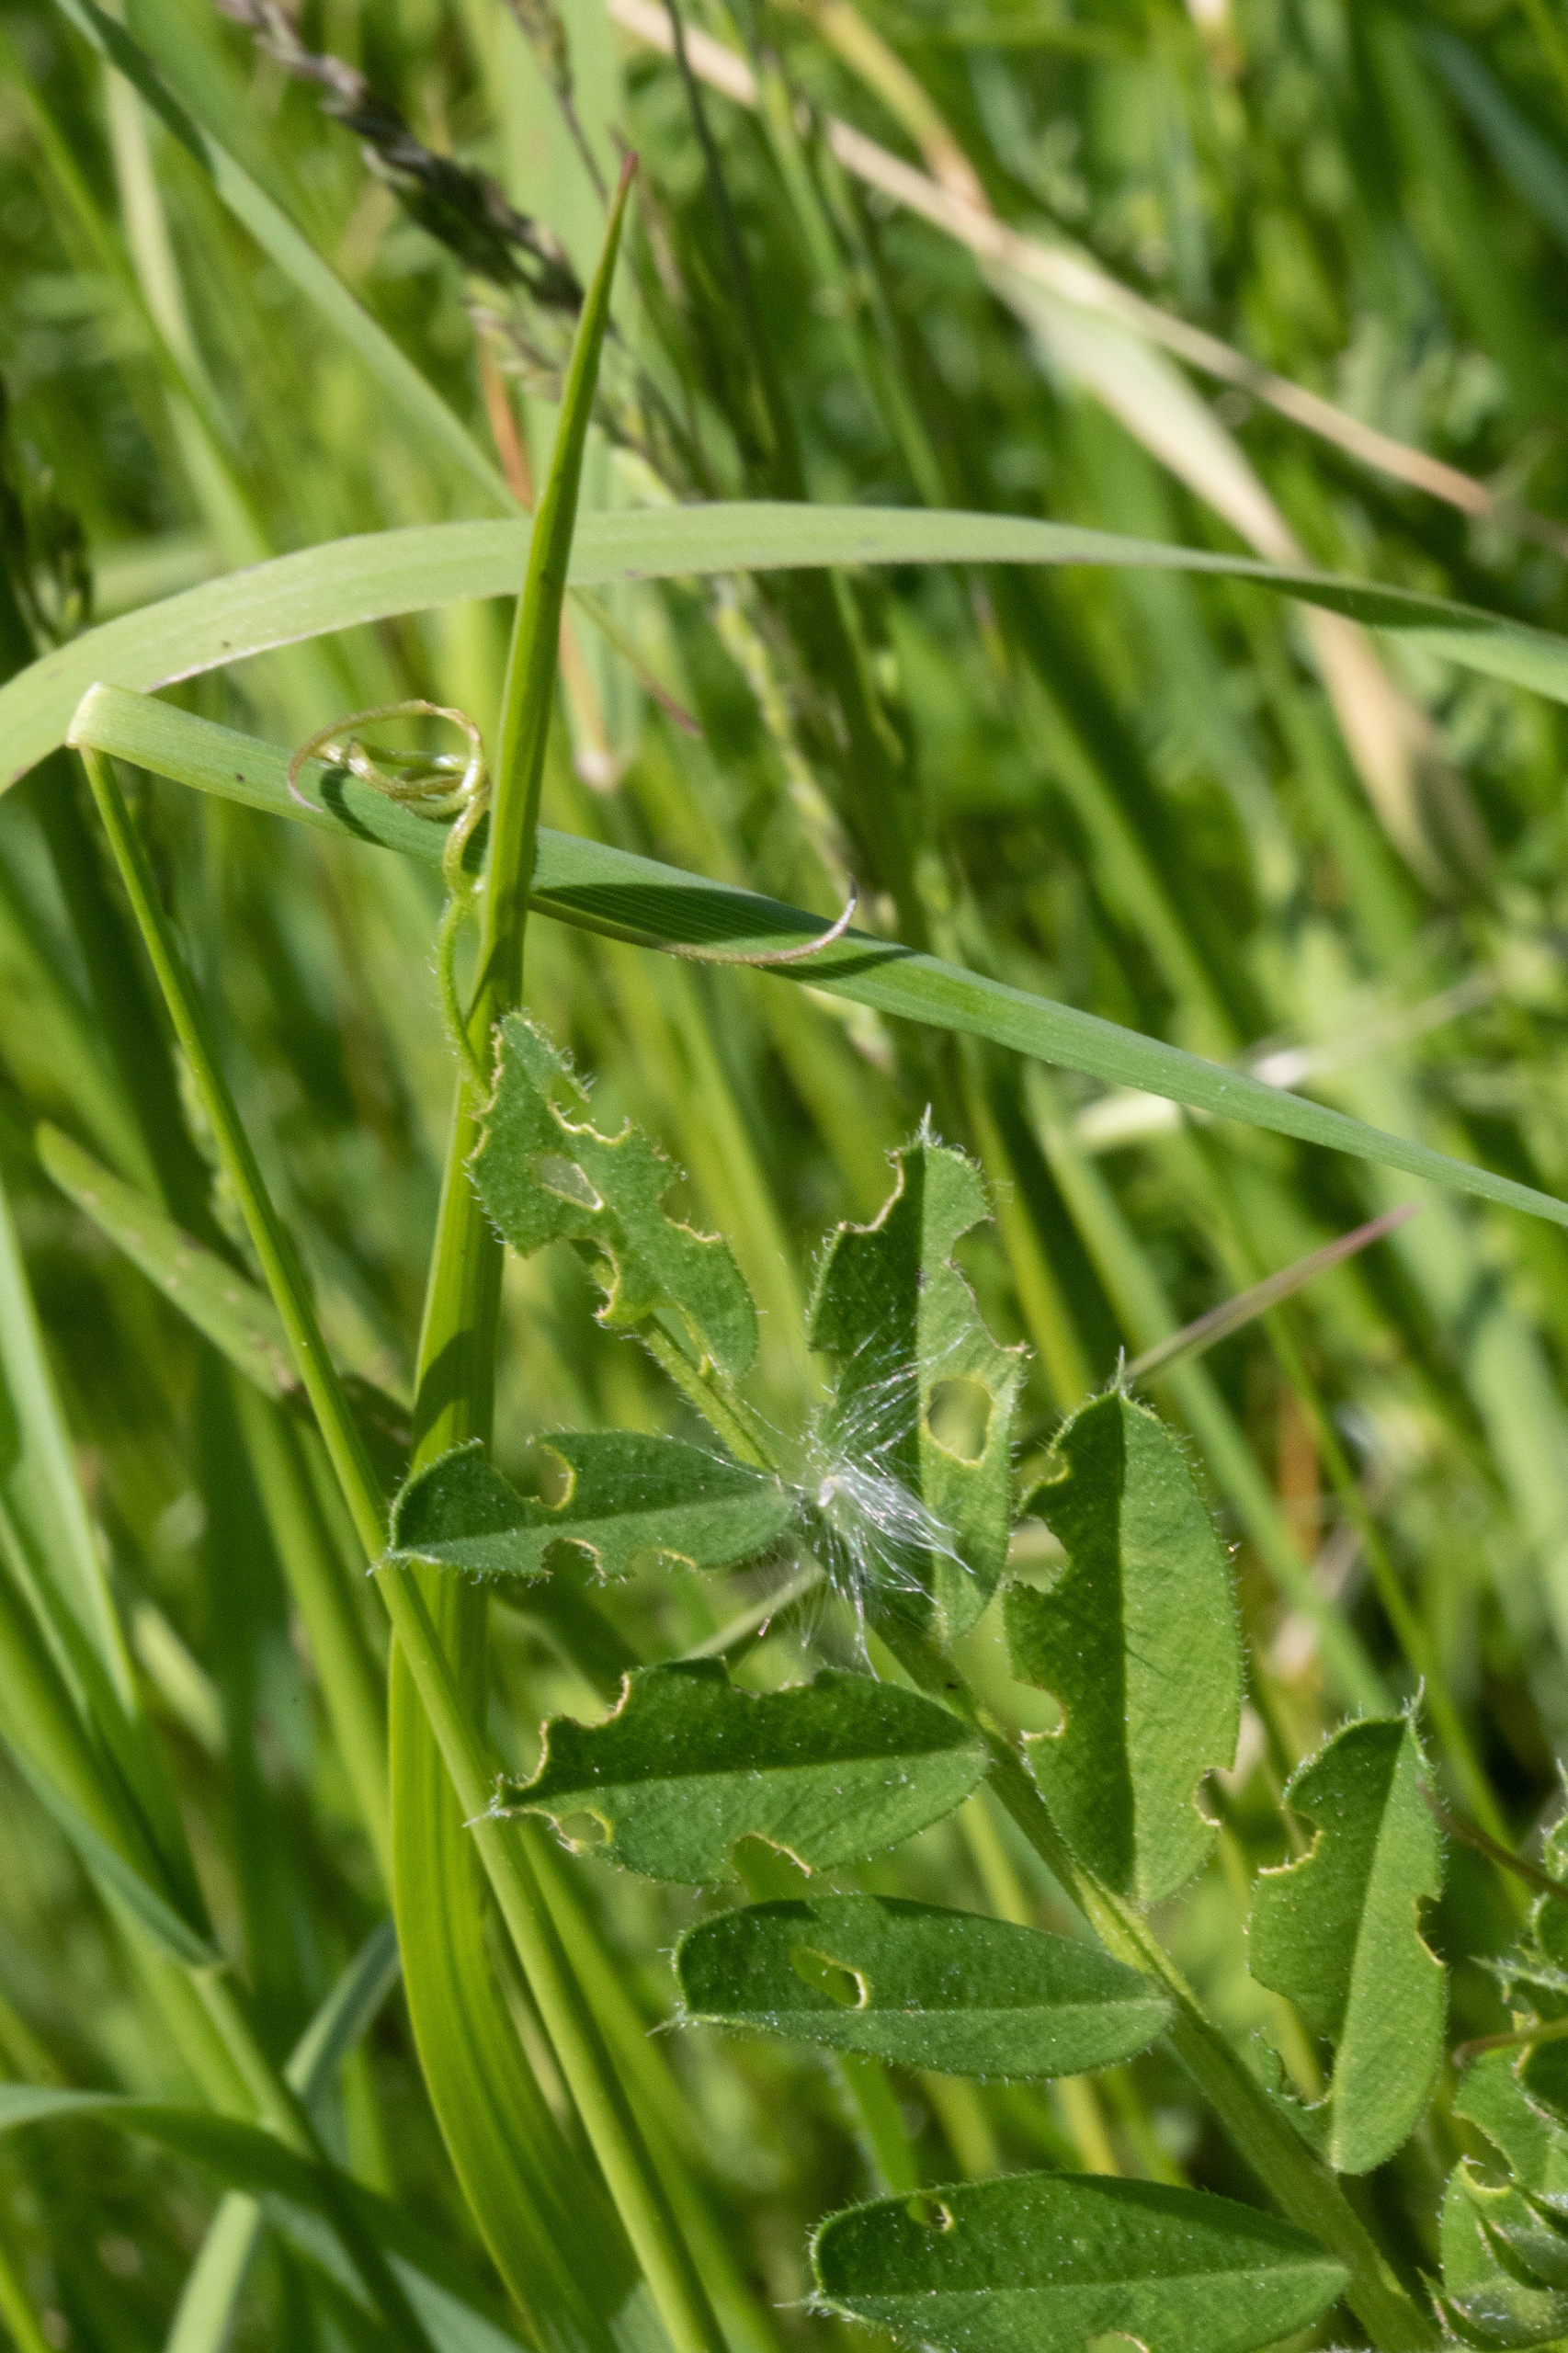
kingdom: Plantae
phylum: Tracheophyta
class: Magnoliopsida
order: Fabales
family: Fabaceae
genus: Vicia
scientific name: Vicia sativa
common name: Foder-vikke
